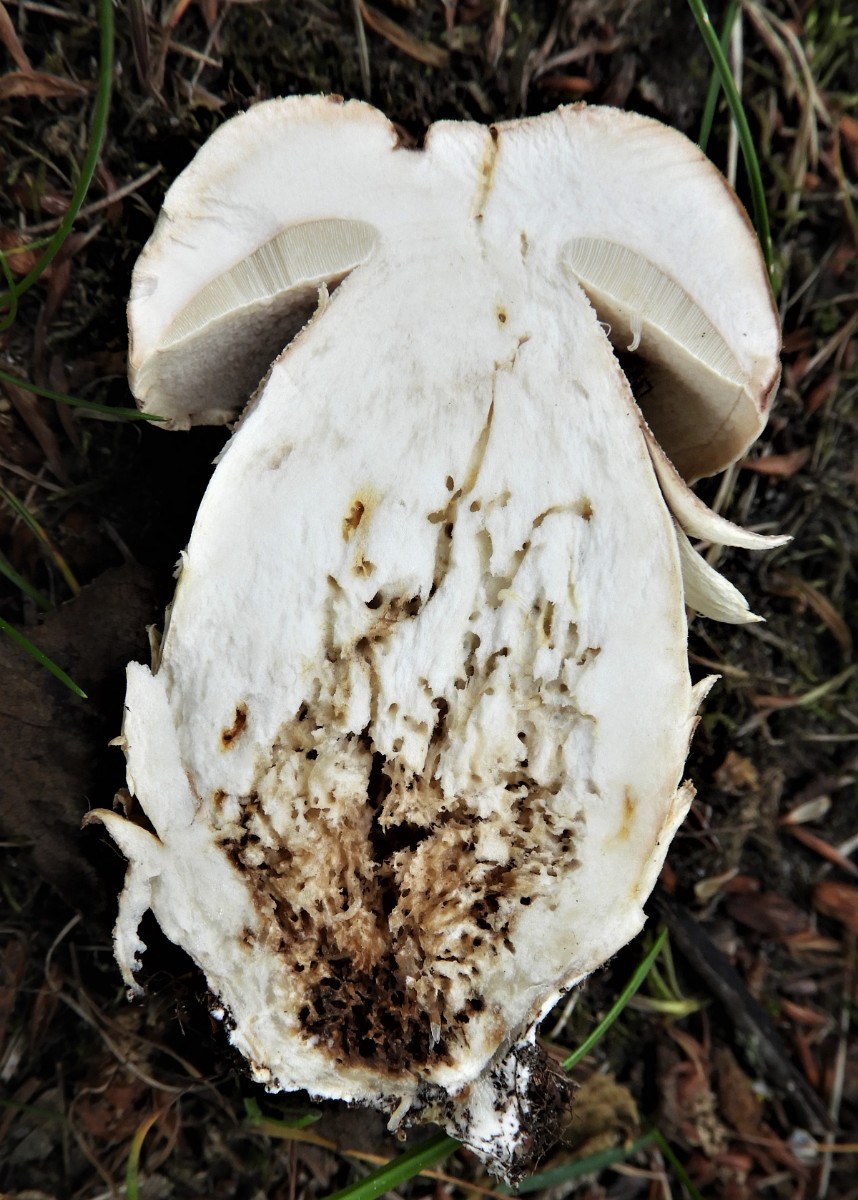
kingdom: Fungi
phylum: Basidiomycota
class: Agaricomycetes
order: Boletales
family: Boletaceae
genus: Boletus
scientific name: Boletus reticulatus
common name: sommer-rørhat
